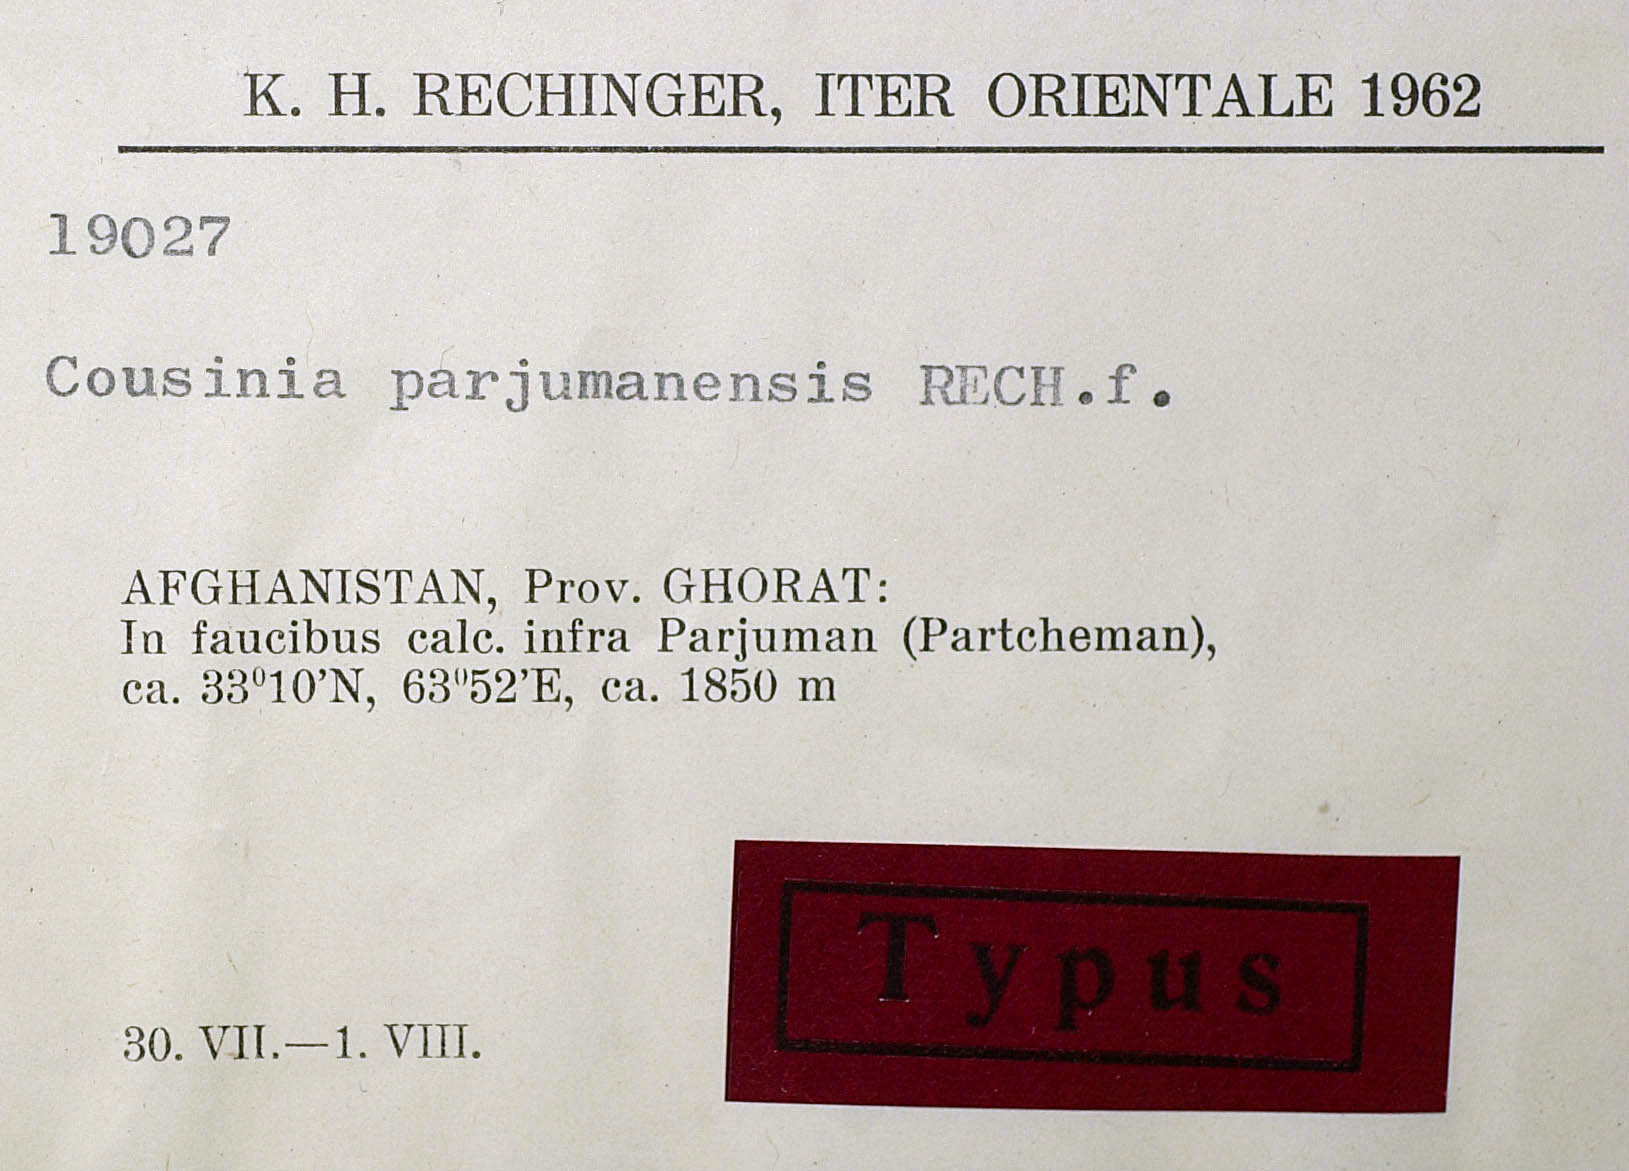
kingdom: Plantae
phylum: Tracheophyta
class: Magnoliopsida
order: Asterales
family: Asteraceae
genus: Cousinia
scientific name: Cousinia parjumanensis
